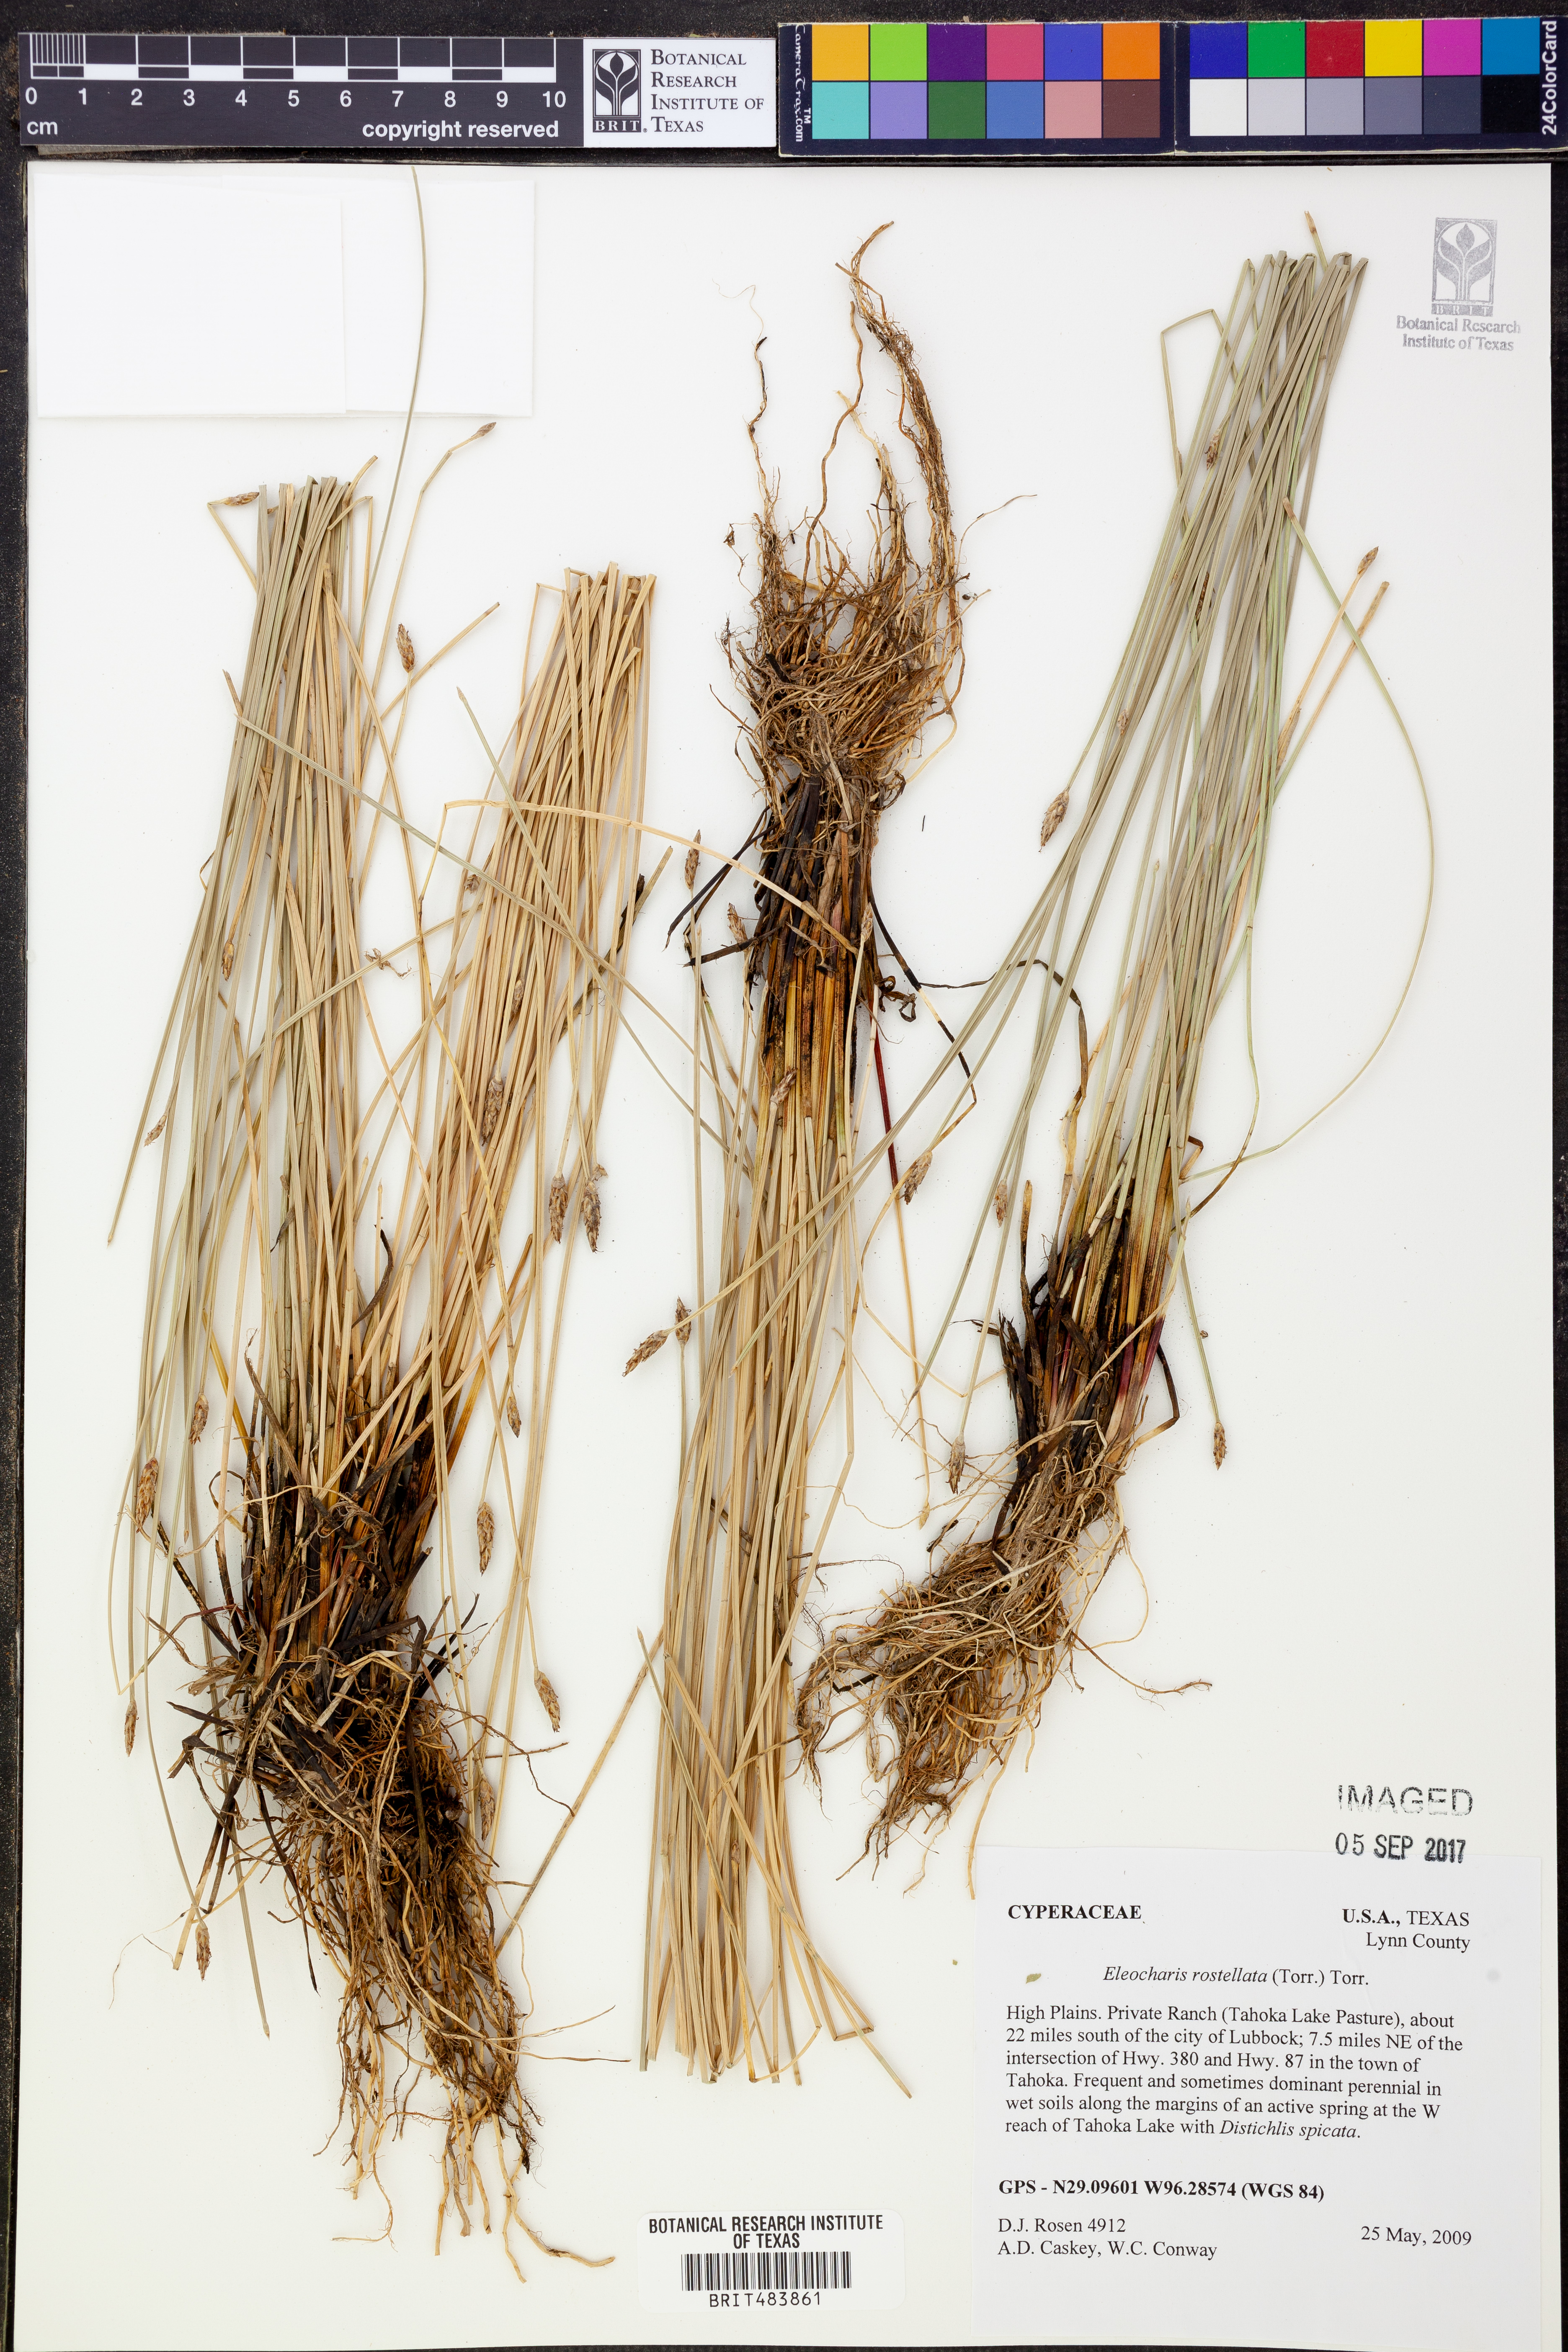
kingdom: Plantae
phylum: Tracheophyta
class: Liliopsida
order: Poales
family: Cyperaceae
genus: Eleocharis
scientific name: Eleocharis rostellata
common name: Walking sedge
